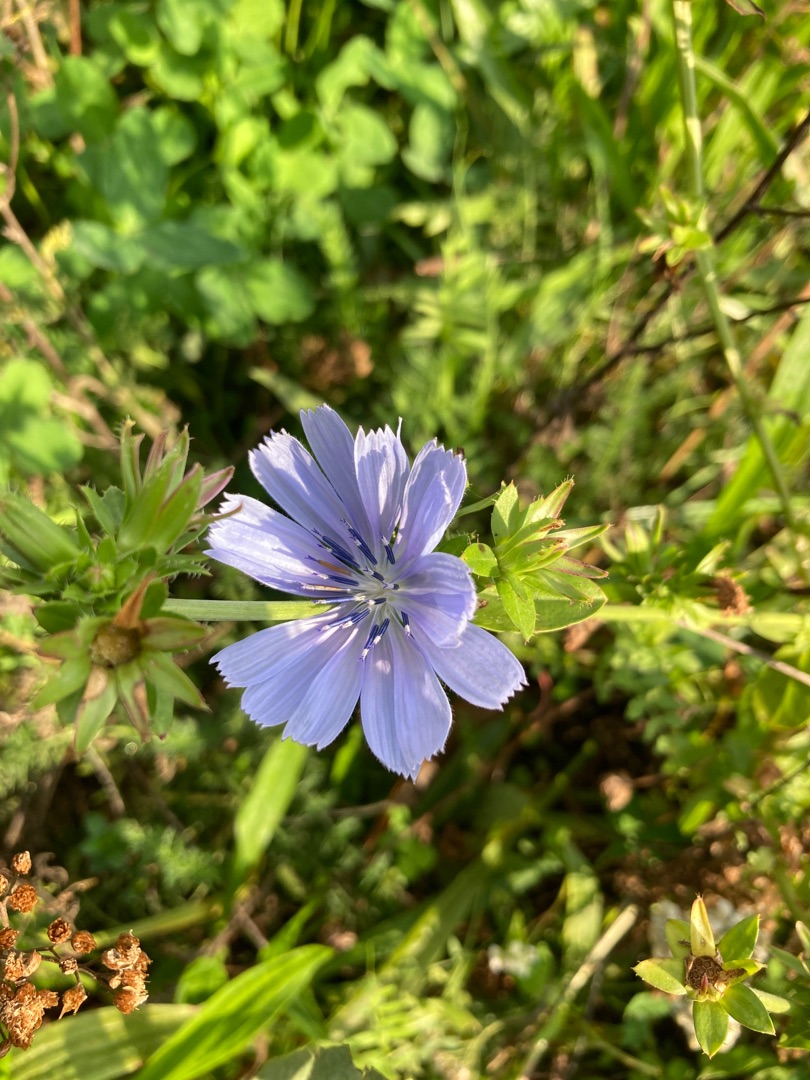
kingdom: Plantae
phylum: Tracheophyta
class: Magnoliopsida
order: Asterales
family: Asteraceae
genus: Cichorium
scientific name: Cichorium intybus
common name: Cikorie
